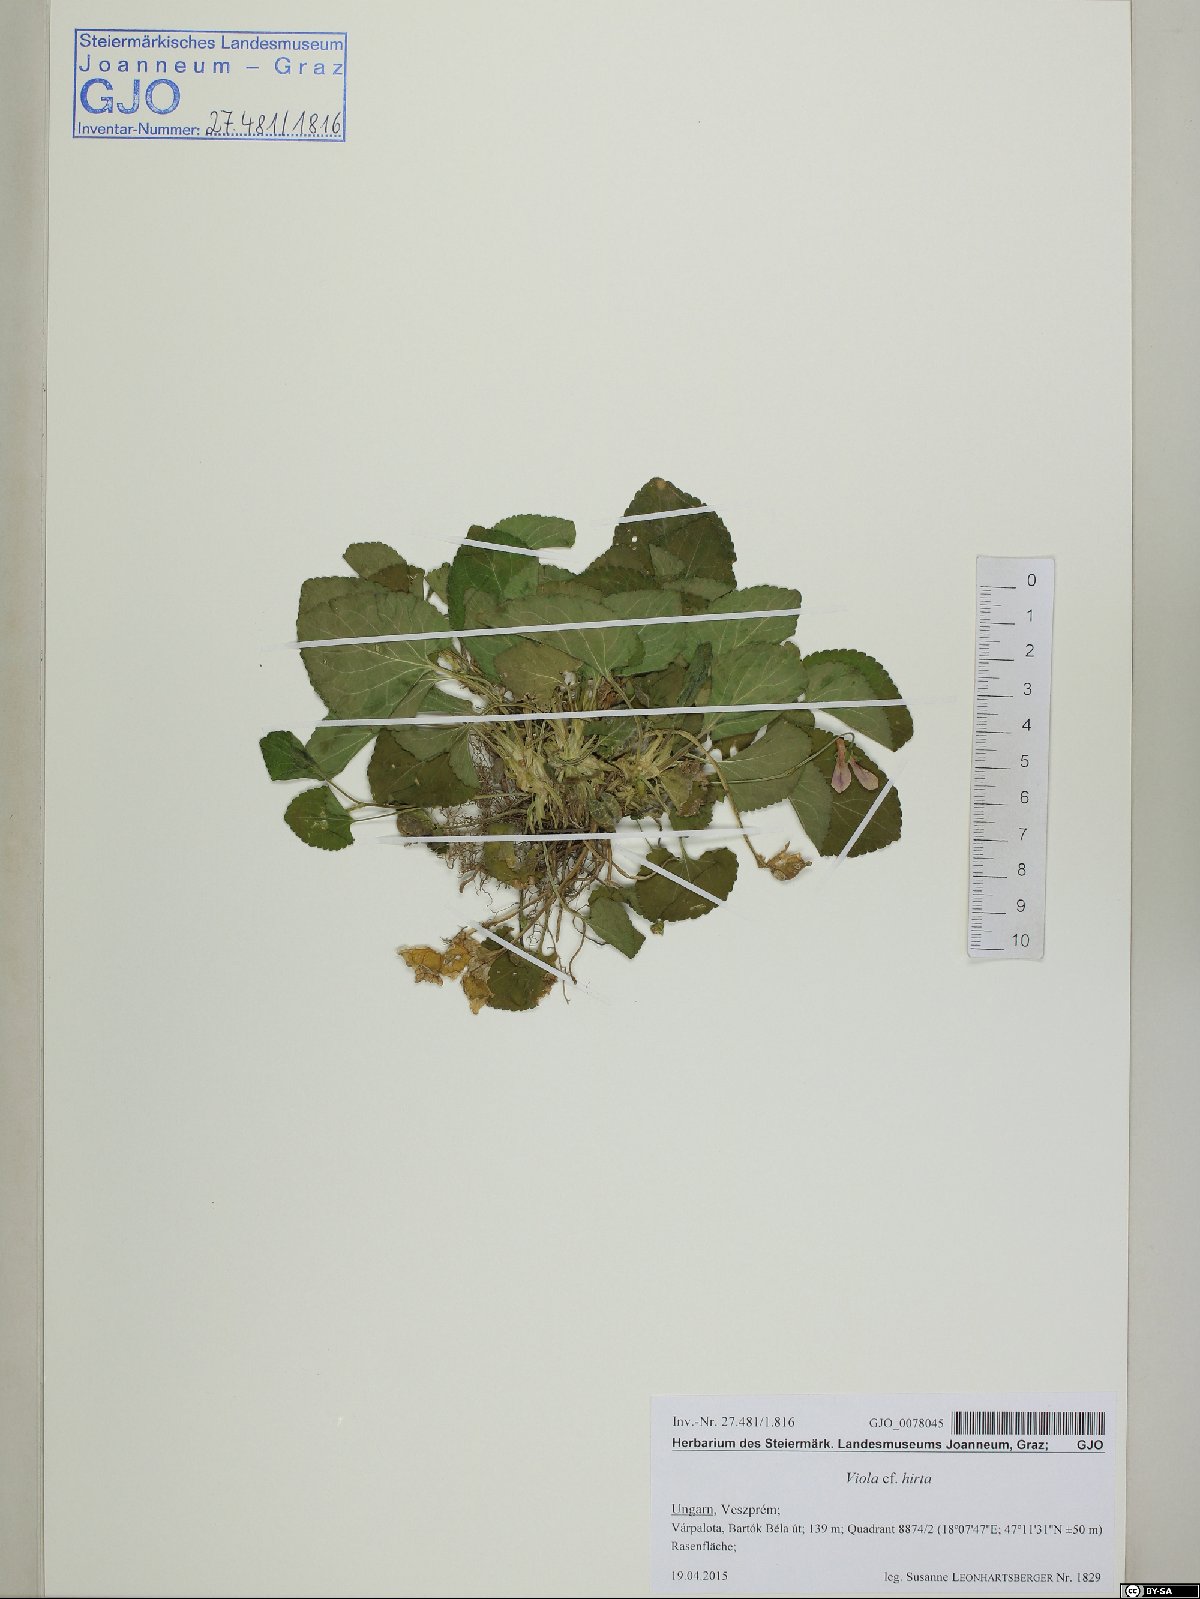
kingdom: Plantae
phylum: Tracheophyta
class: Magnoliopsida
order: Malpighiales
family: Violaceae
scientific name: Violaceae
